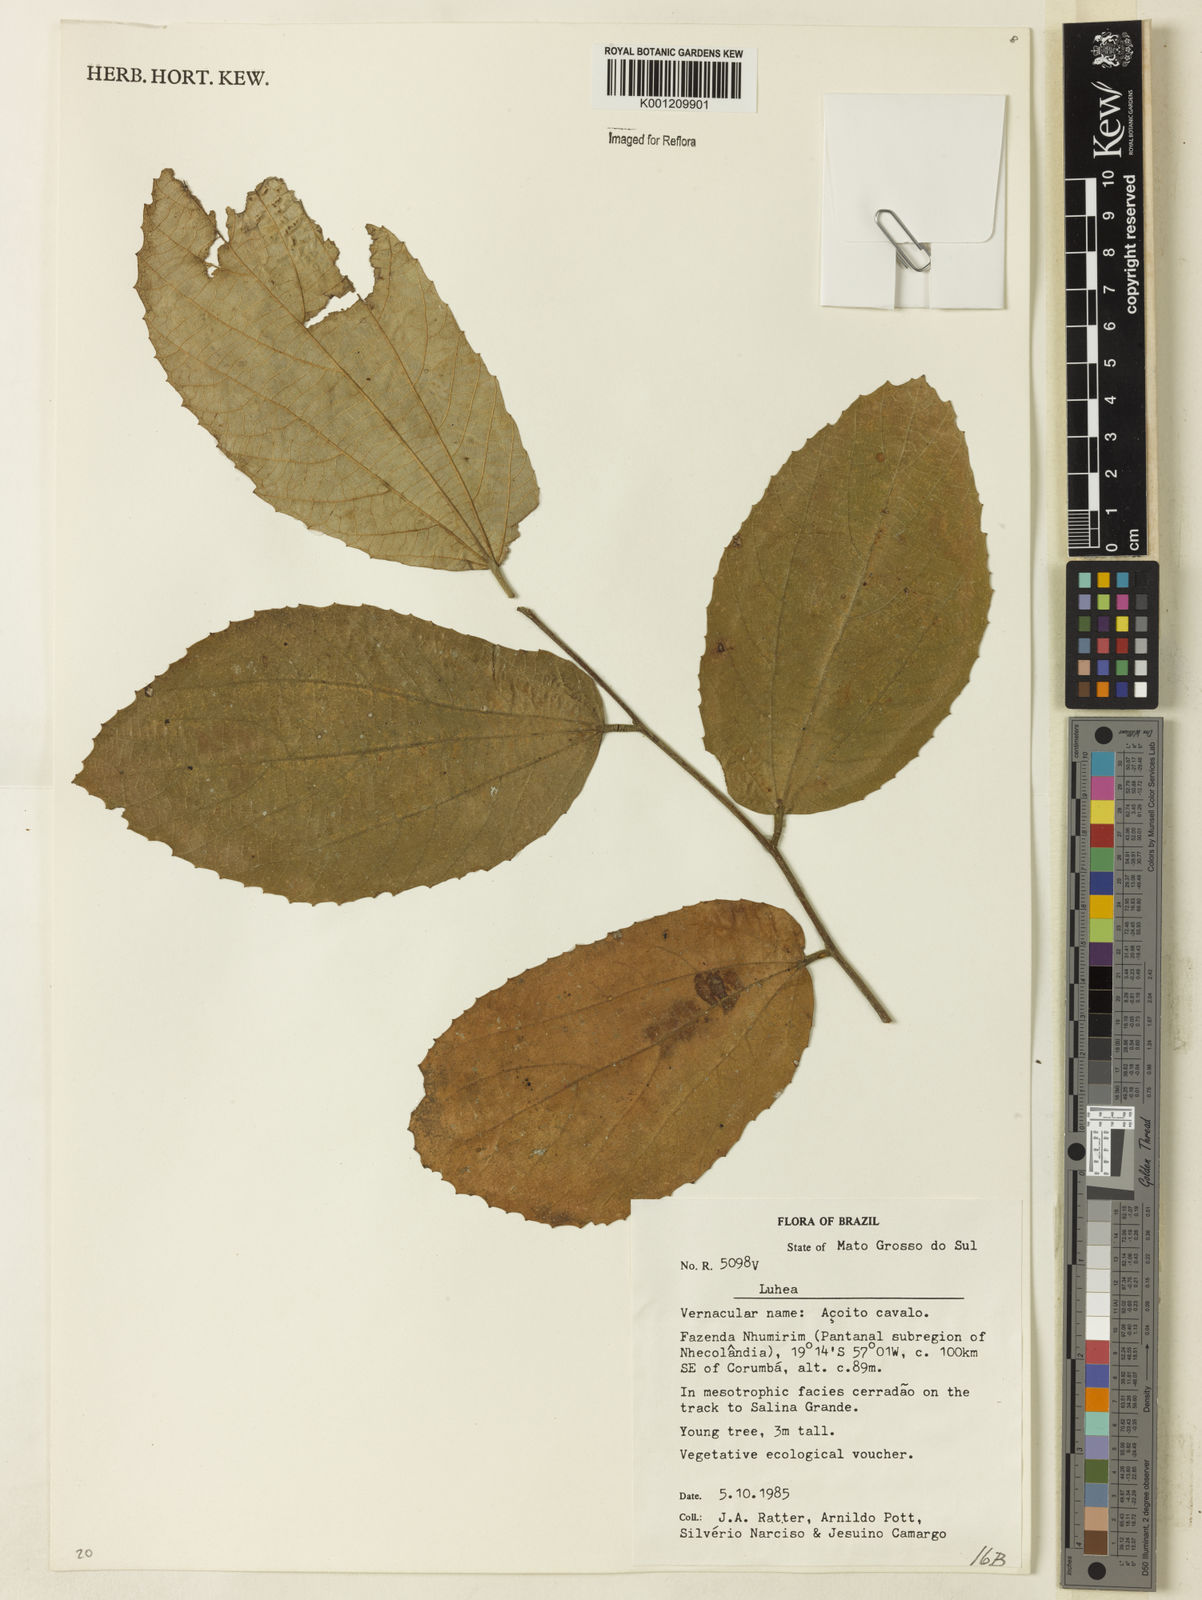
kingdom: Plantae
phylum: Tracheophyta
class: Magnoliopsida
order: Malvales
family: Malvaceae
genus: Luehea
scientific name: Luehea
